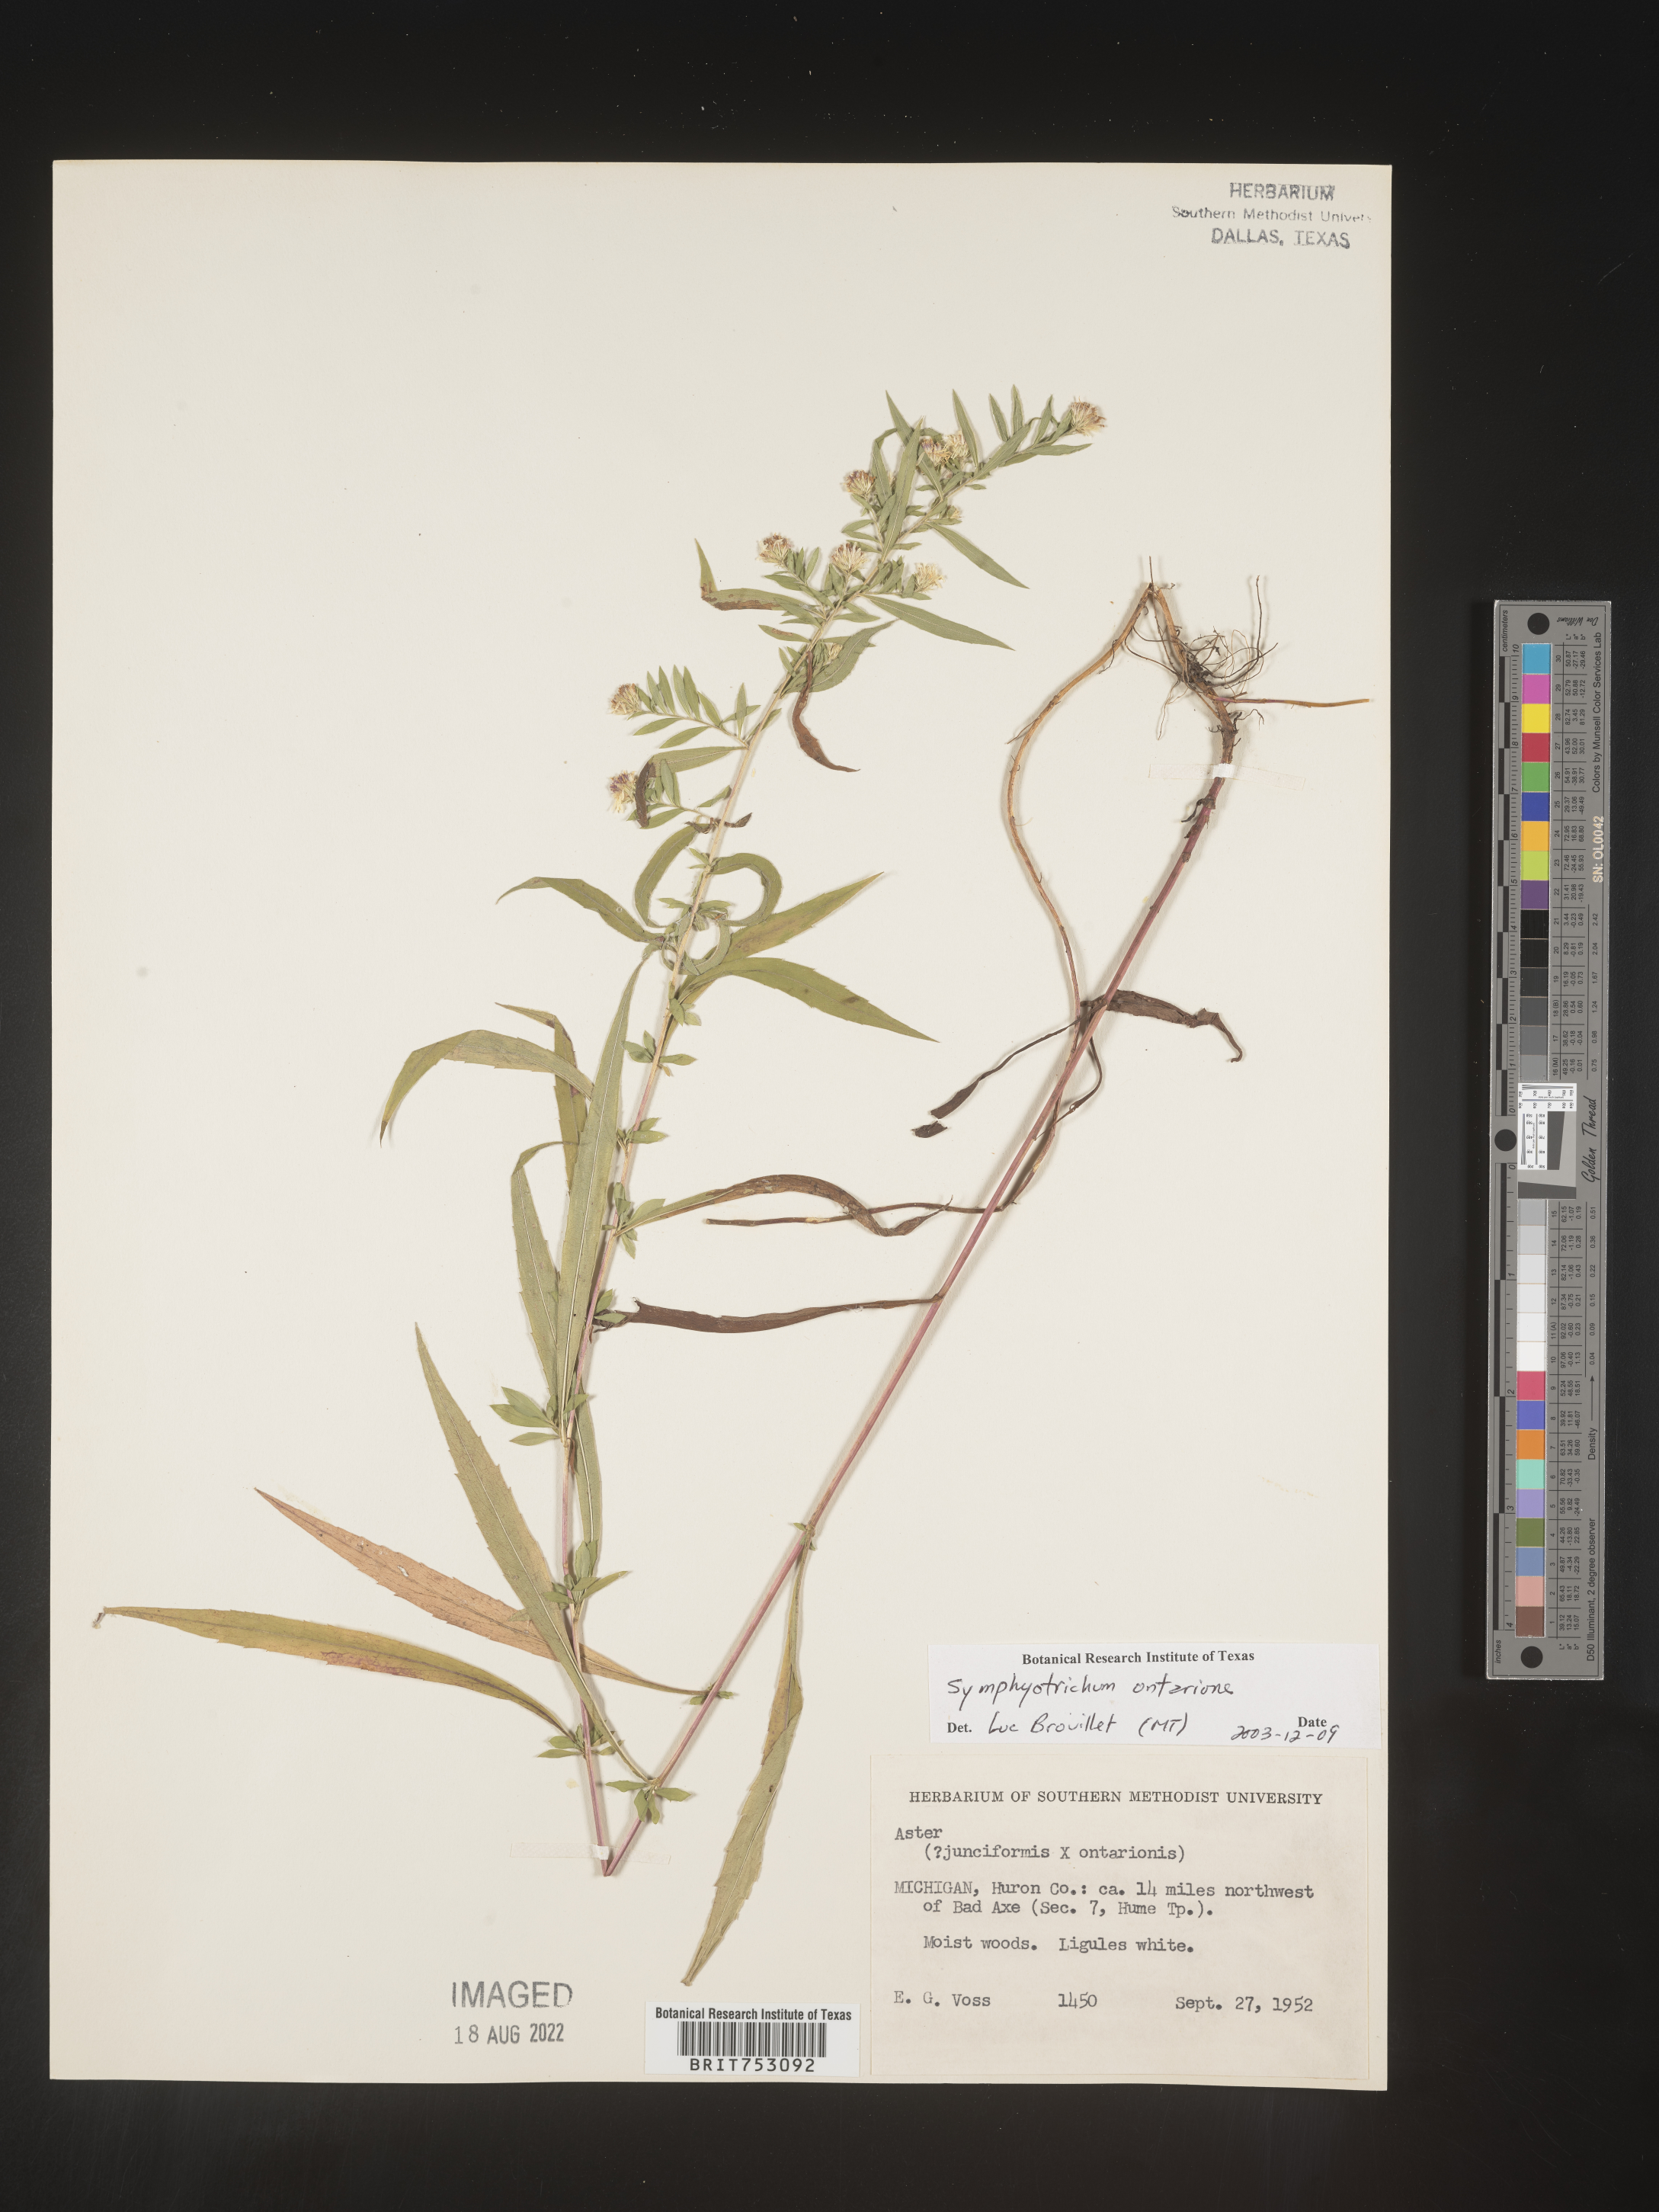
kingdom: Plantae
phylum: Tracheophyta
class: Magnoliopsida
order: Asterales
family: Asteraceae
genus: Symphyotrichum
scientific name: Symphyotrichum ontarionis
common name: Bottomland aster
